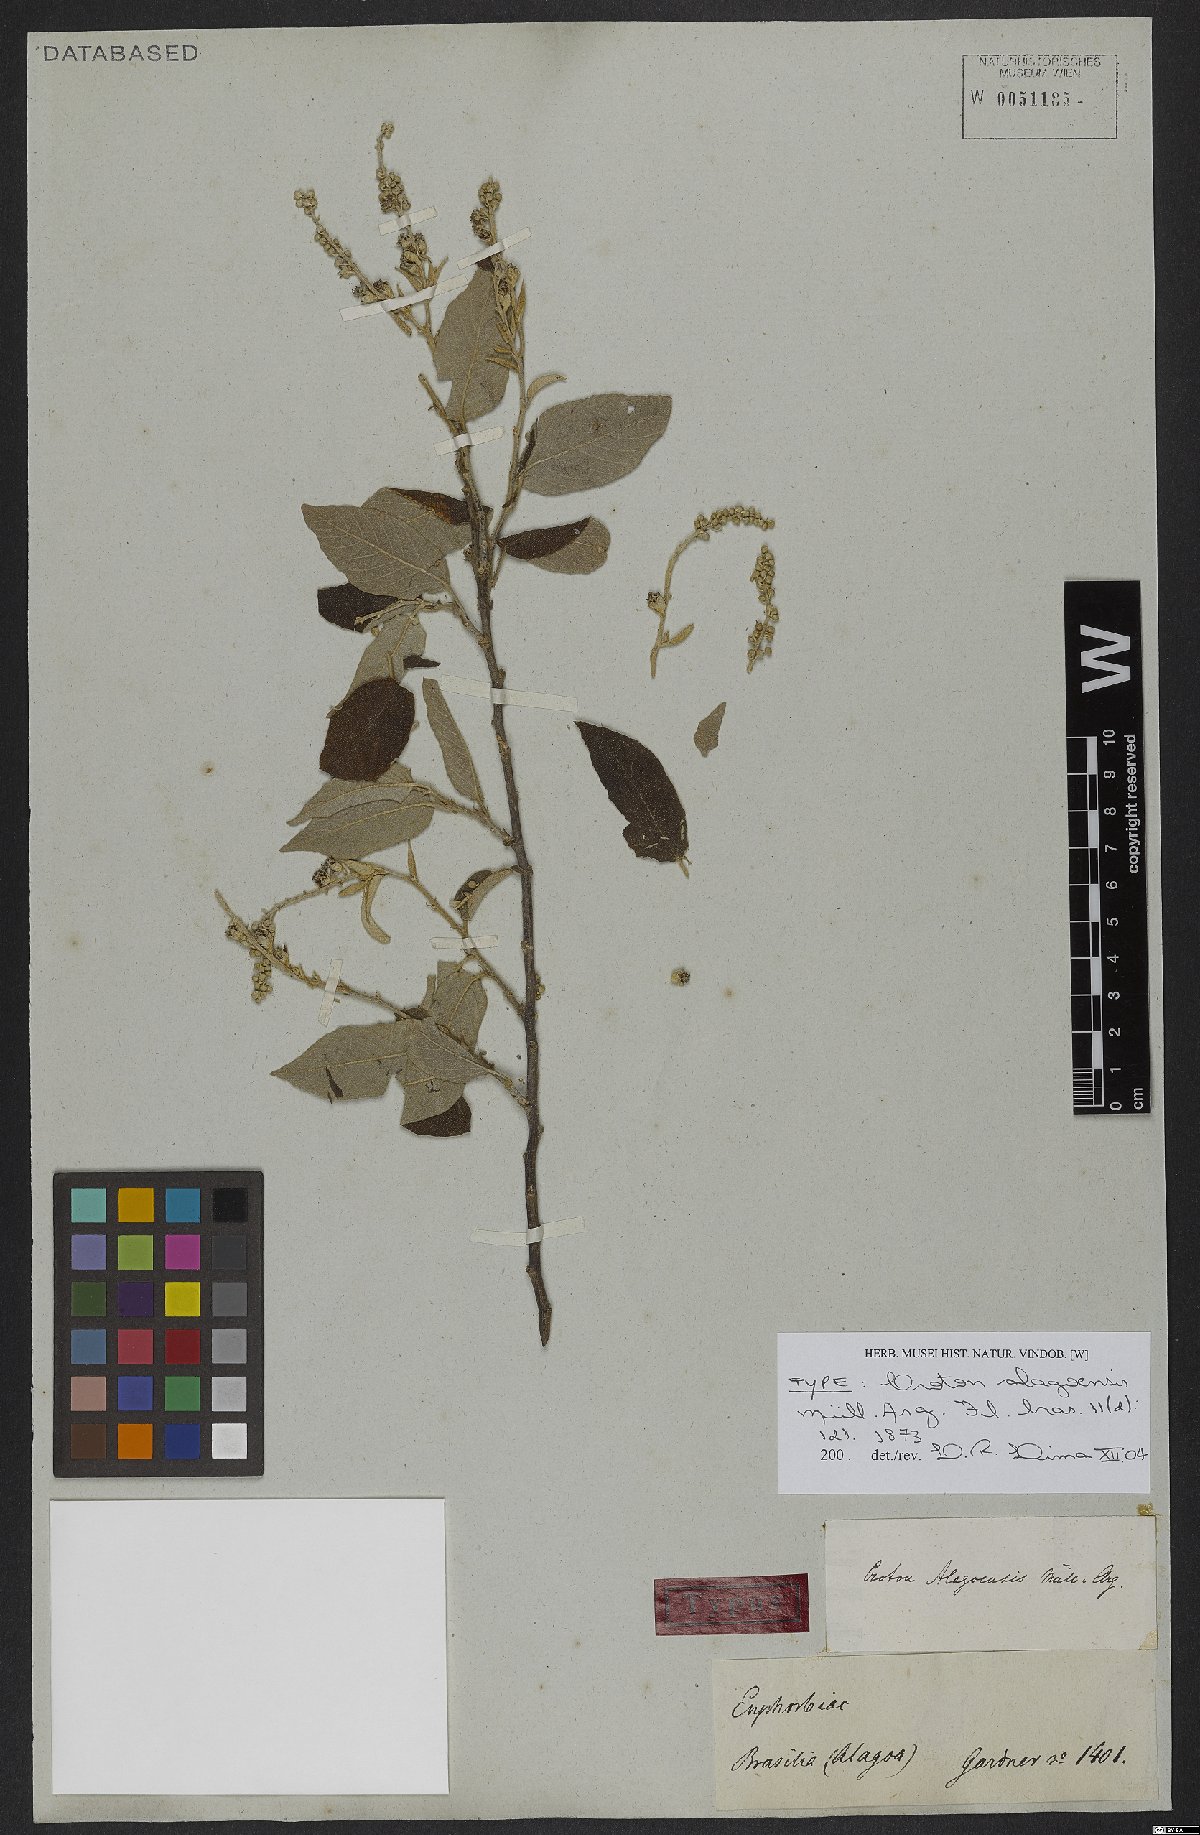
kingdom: Plantae
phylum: Tracheophyta
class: Magnoliopsida
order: Malpighiales
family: Euphorbiaceae
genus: Croton
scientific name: Croton blanchetianus
